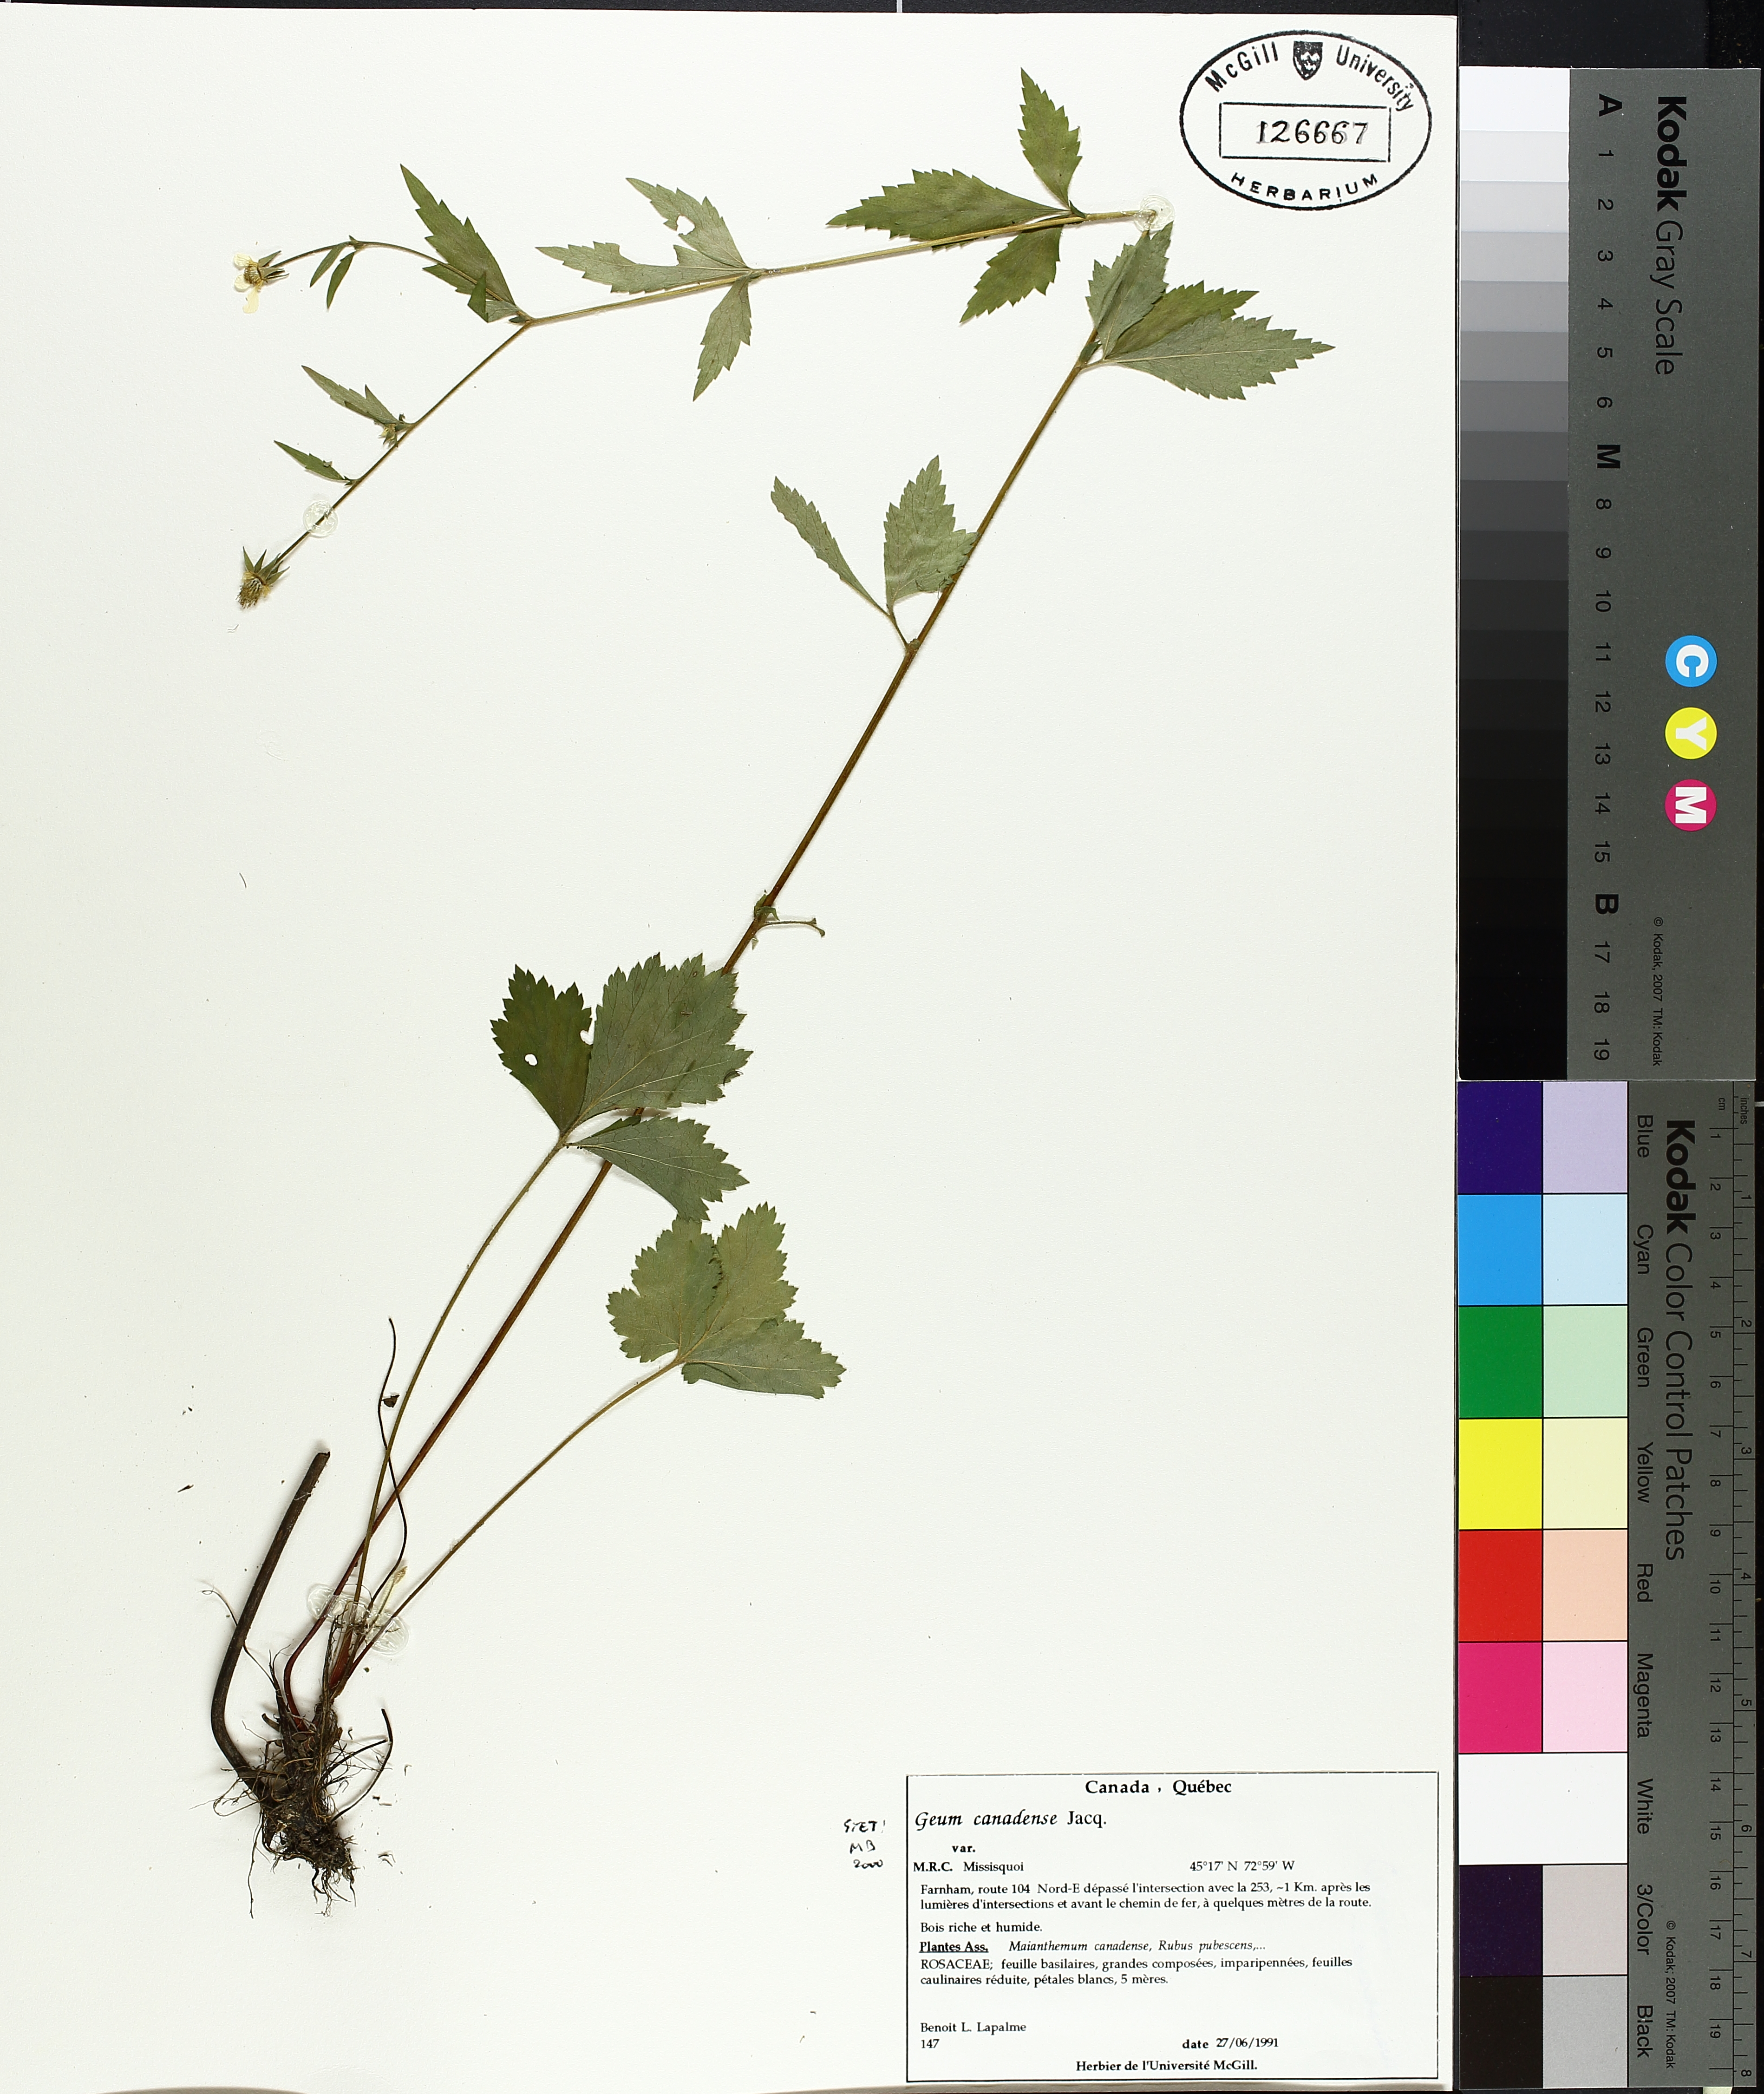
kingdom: Plantae
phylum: Tracheophyta
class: Liliopsida
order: Liliales
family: Liliaceae
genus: Erythronium
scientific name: Erythronium americanum
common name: Yellow adder's-tongue
